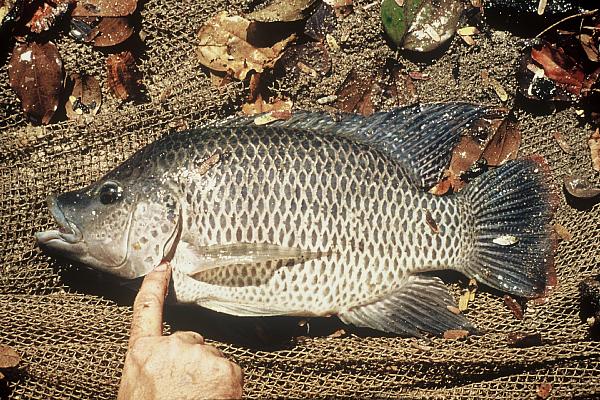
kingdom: Animalia
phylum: Chordata
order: Perciformes
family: Cichlidae
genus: Oreochromis
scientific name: Oreochromis mortimeri
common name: Kariba tilapia
